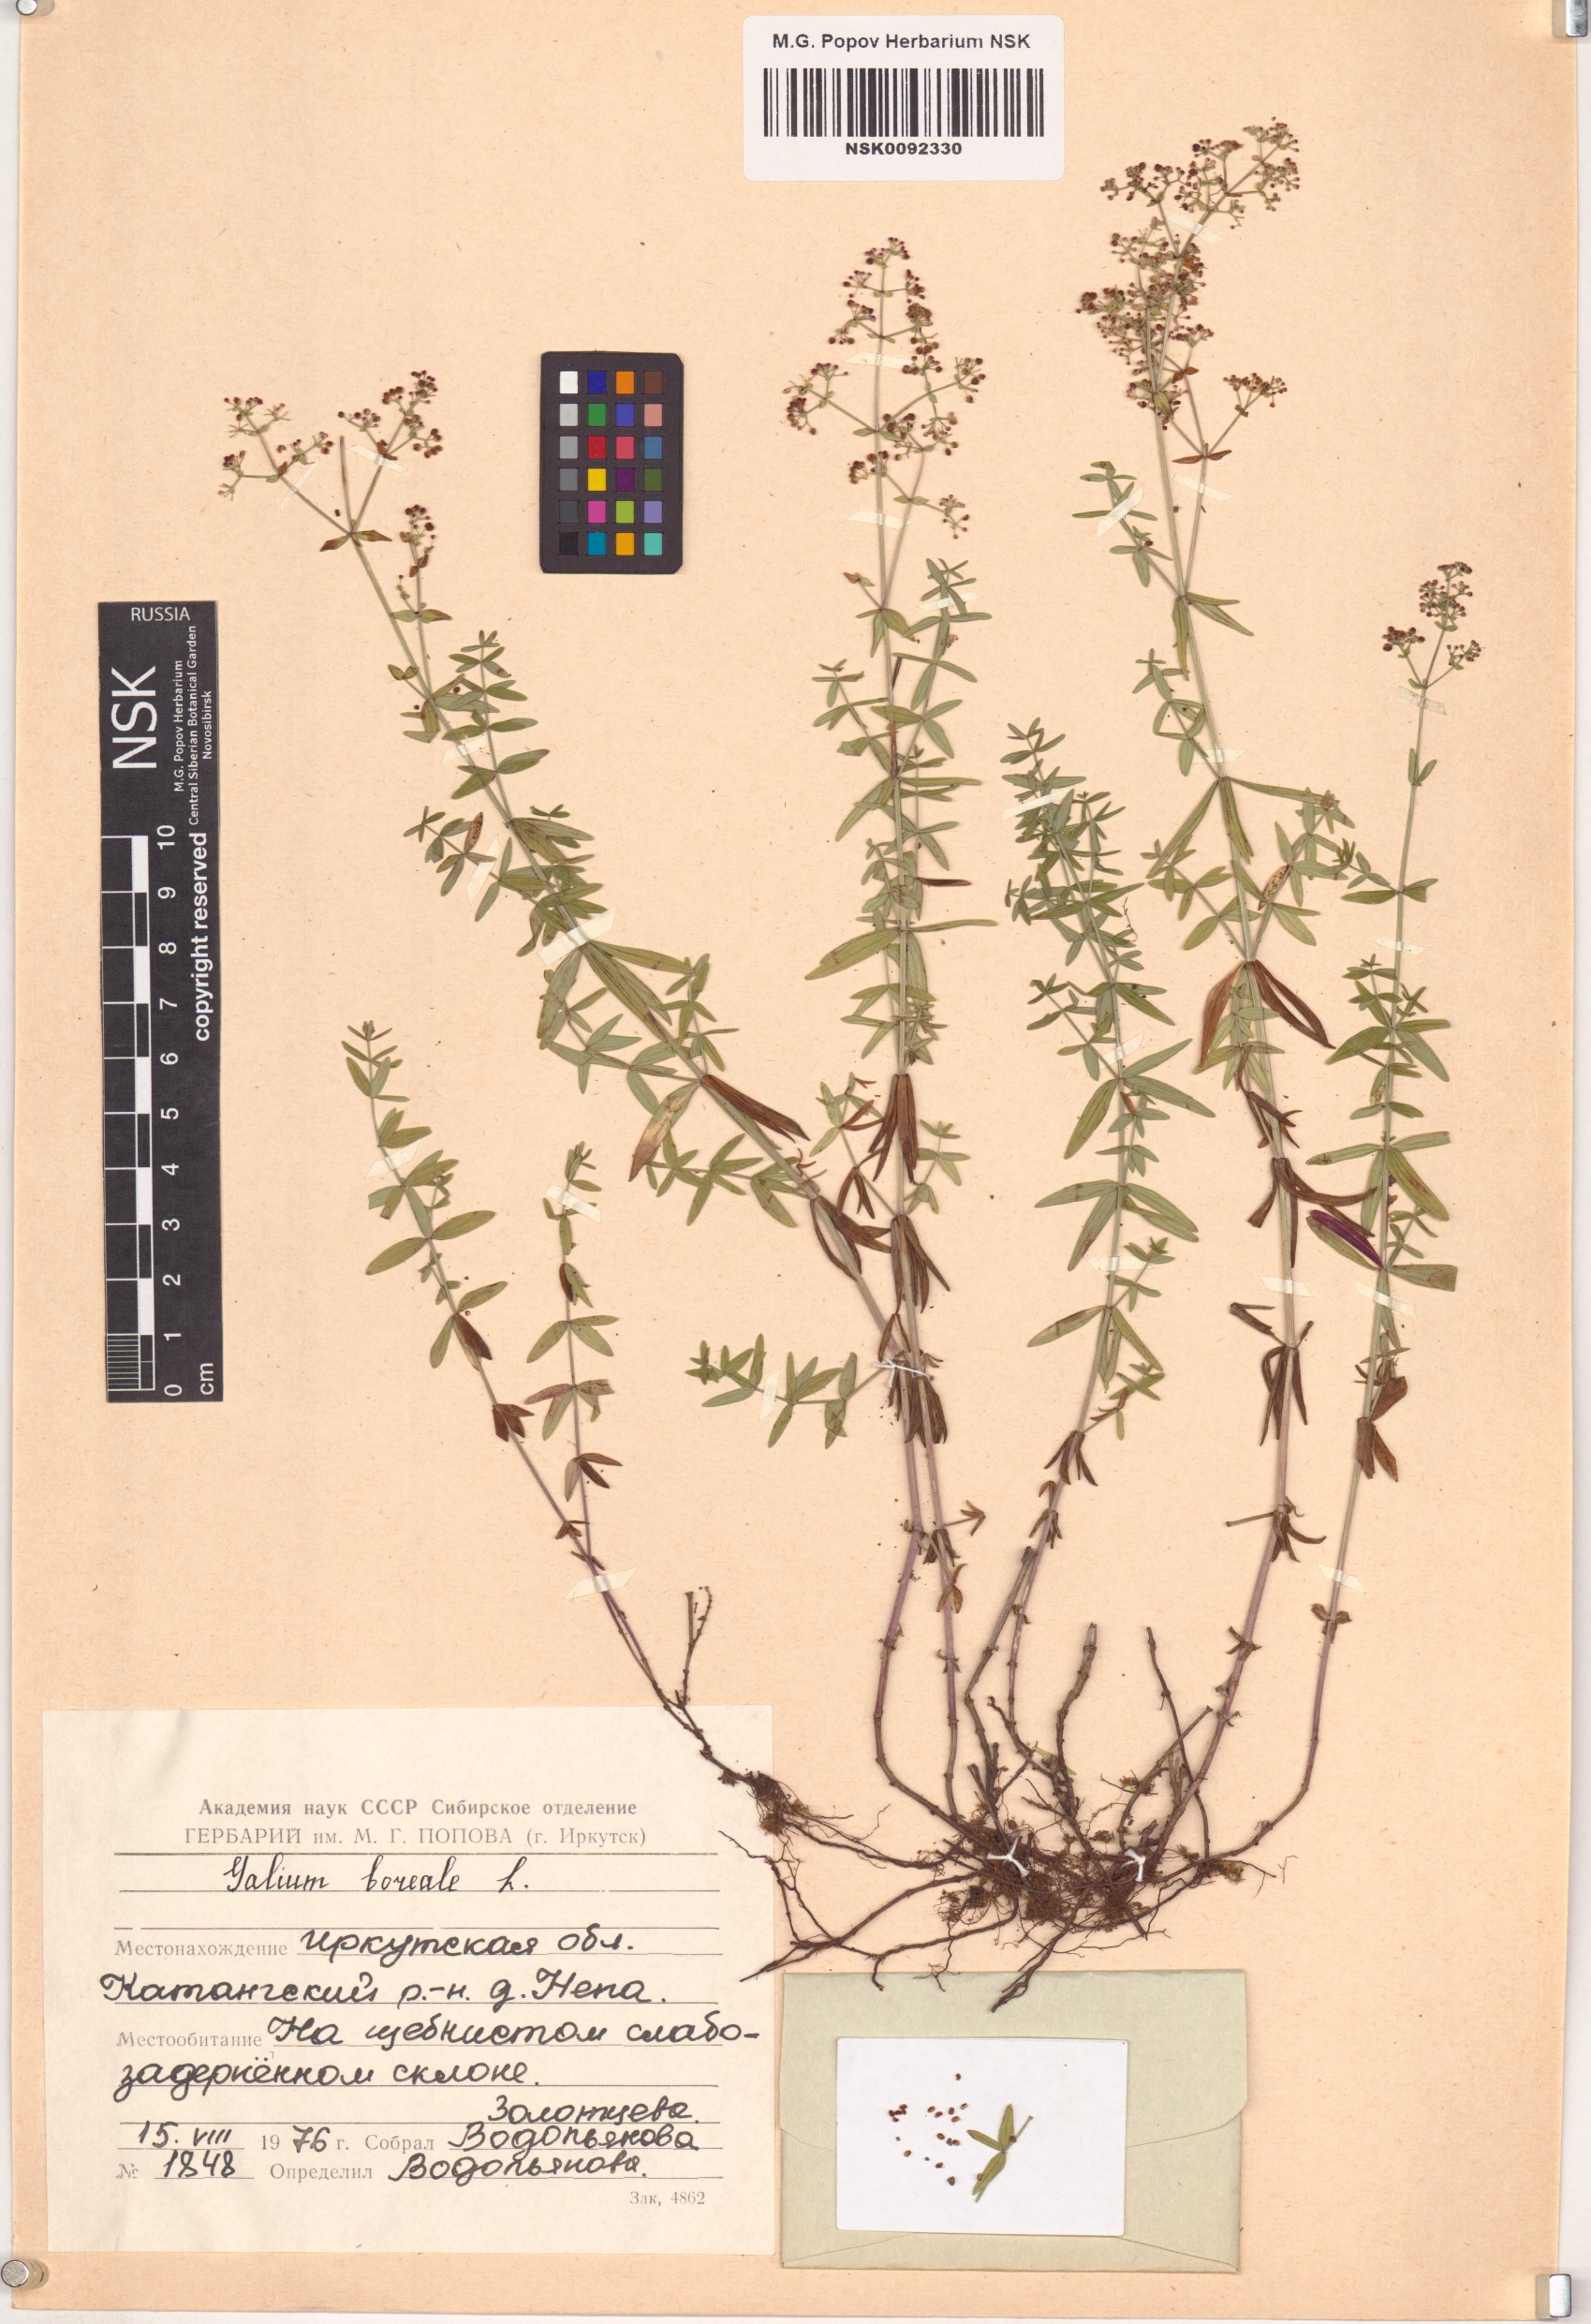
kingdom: Plantae
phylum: Tracheophyta
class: Magnoliopsida
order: Gentianales
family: Rubiaceae
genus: Galium
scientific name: Galium boreale
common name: Northern bedstraw
